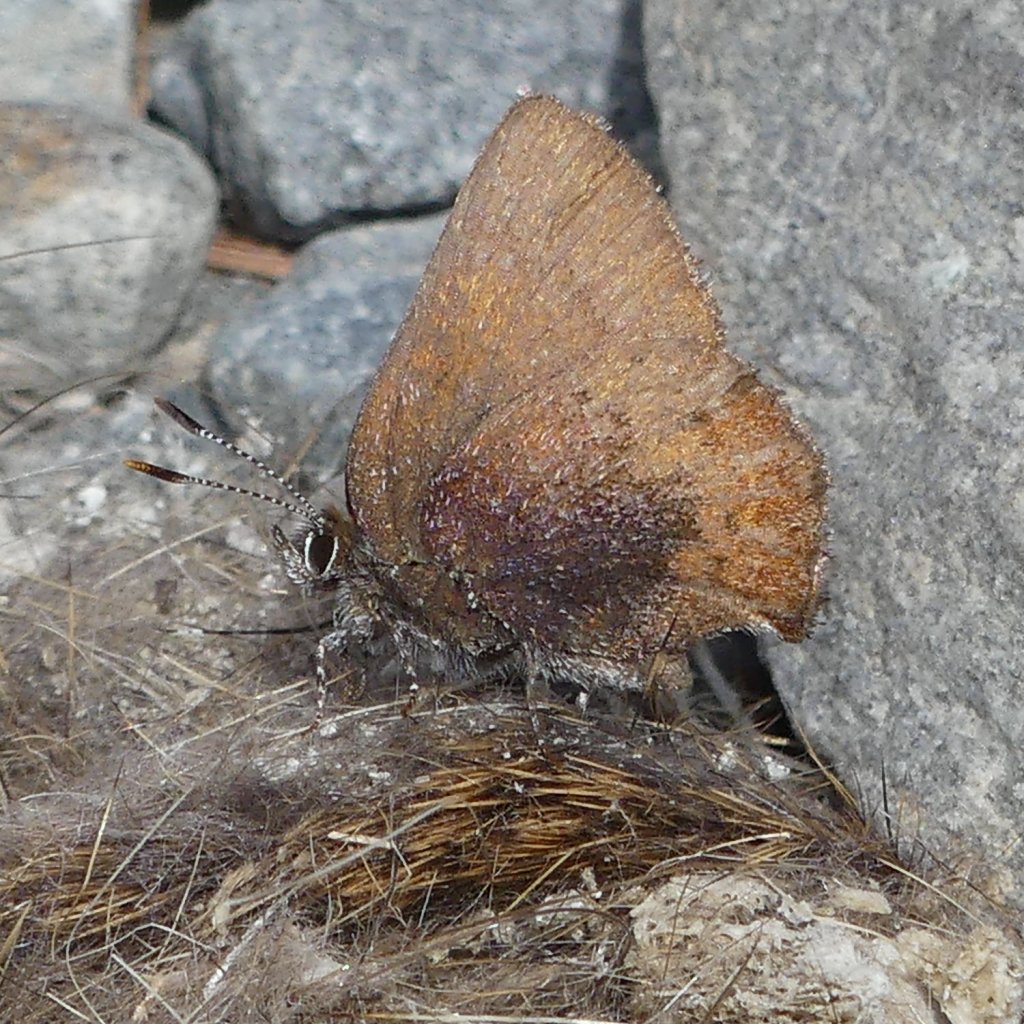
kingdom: Animalia
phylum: Arthropoda
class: Insecta
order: Lepidoptera
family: Lycaenidae
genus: Incisalia
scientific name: Incisalia irioides
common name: Brown Elfin
